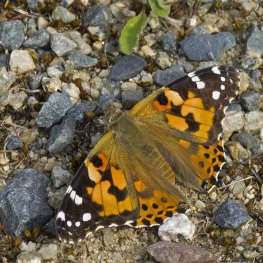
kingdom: Animalia
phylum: Arthropoda
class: Insecta
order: Lepidoptera
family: Nymphalidae
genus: Vanessa
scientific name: Vanessa cardui
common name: Painted Lady
